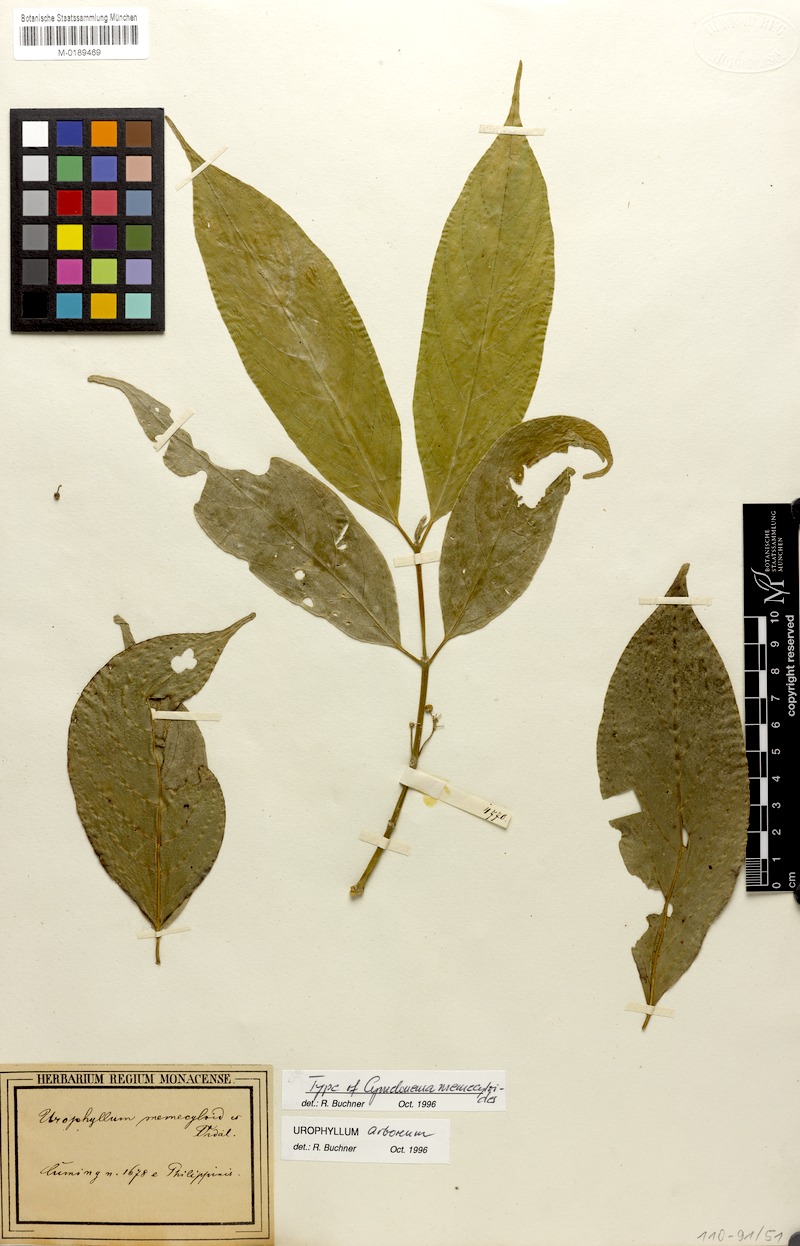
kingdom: Plantae
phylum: Tracheophyta
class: Magnoliopsida
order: Gentianales
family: Rubiaceae
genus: Urophyllum
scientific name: Urophyllum arboreum
